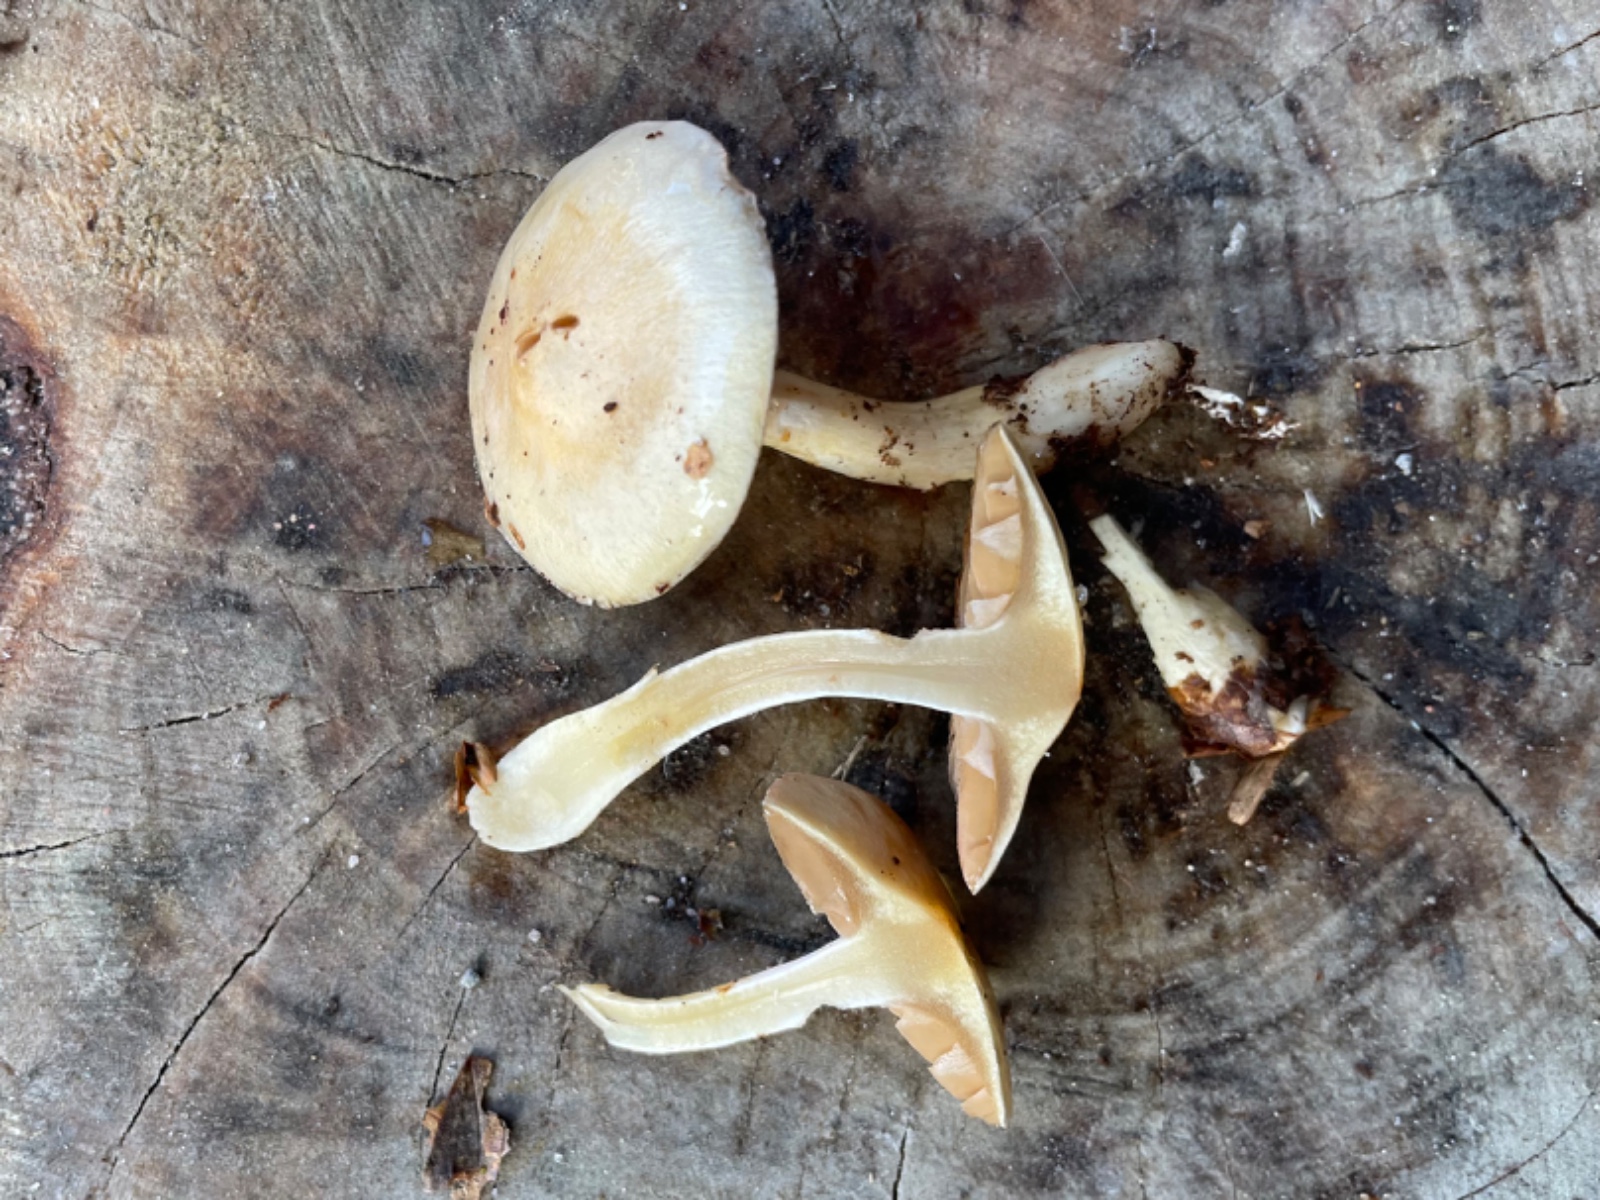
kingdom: Fungi
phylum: Basidiomycota
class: Agaricomycetes
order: Agaricales
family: Cortinariaceae
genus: Cortinarius
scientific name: Cortinarius
